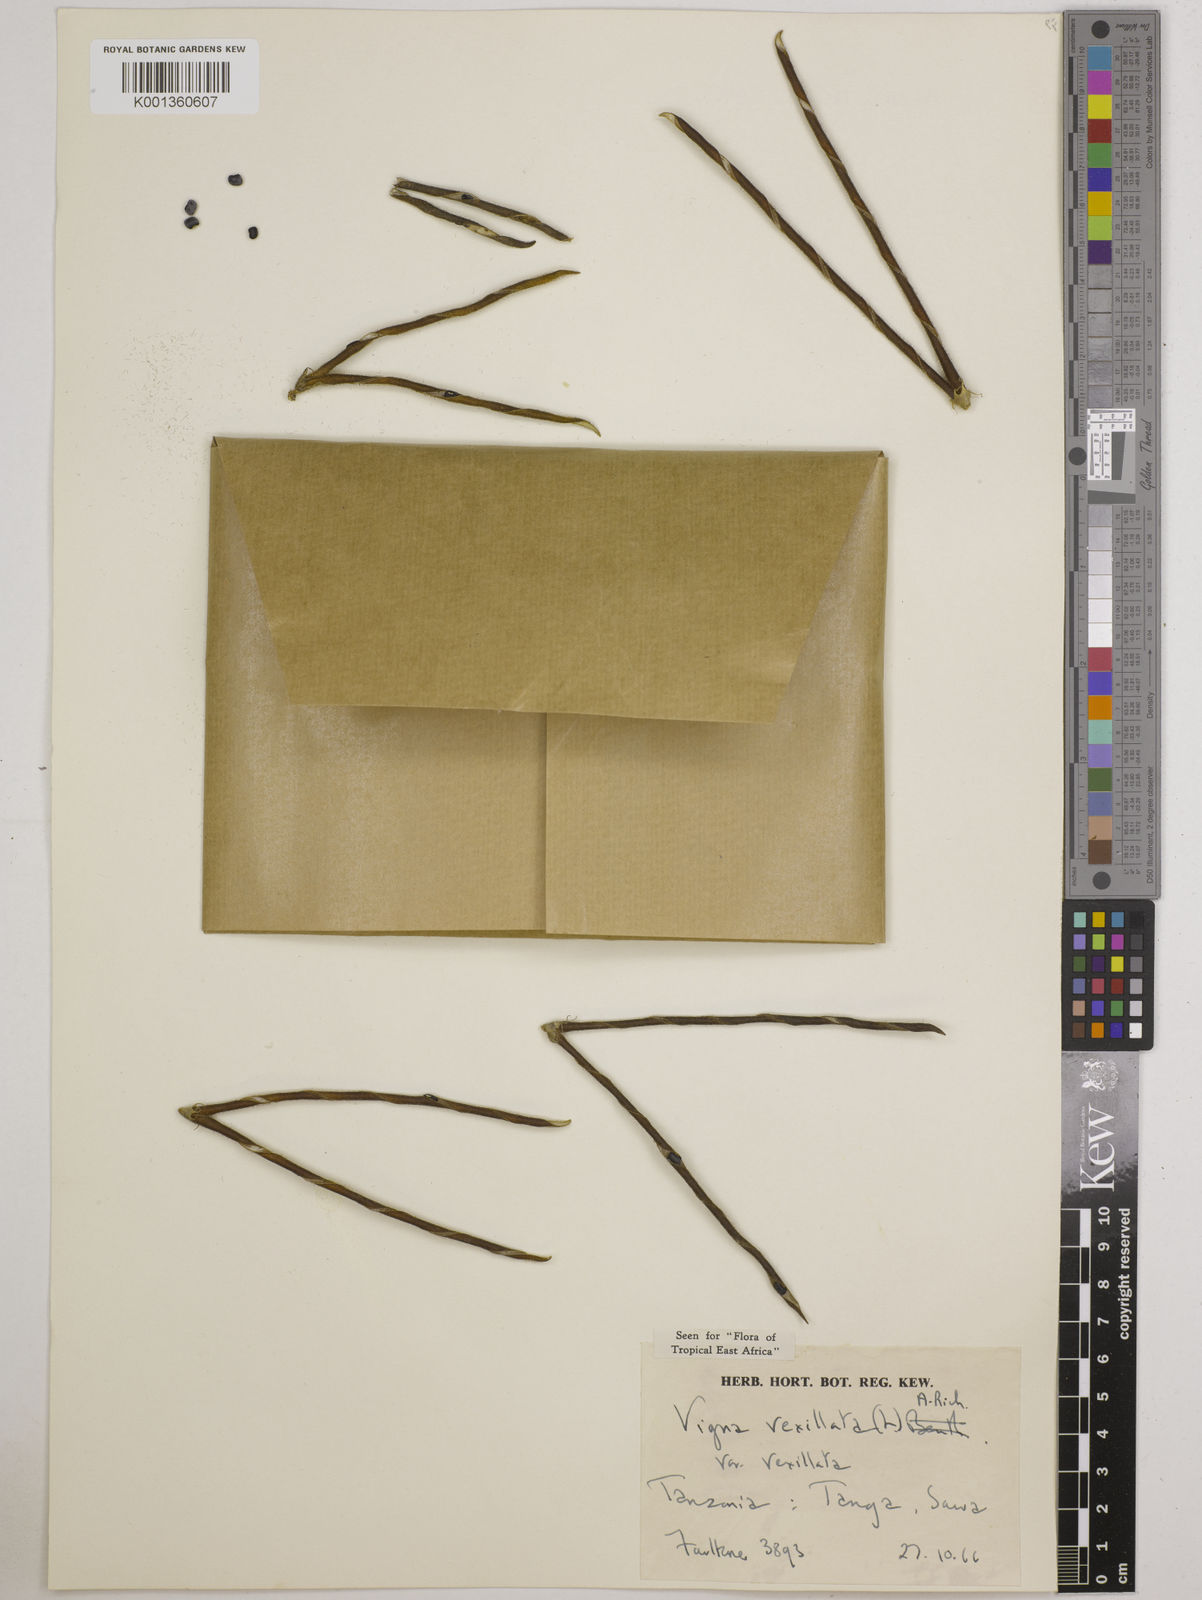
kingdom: Plantae
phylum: Tracheophyta
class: Magnoliopsida
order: Fabales
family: Fabaceae
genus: Vigna
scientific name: Vigna vexillata
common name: Zombi pea
